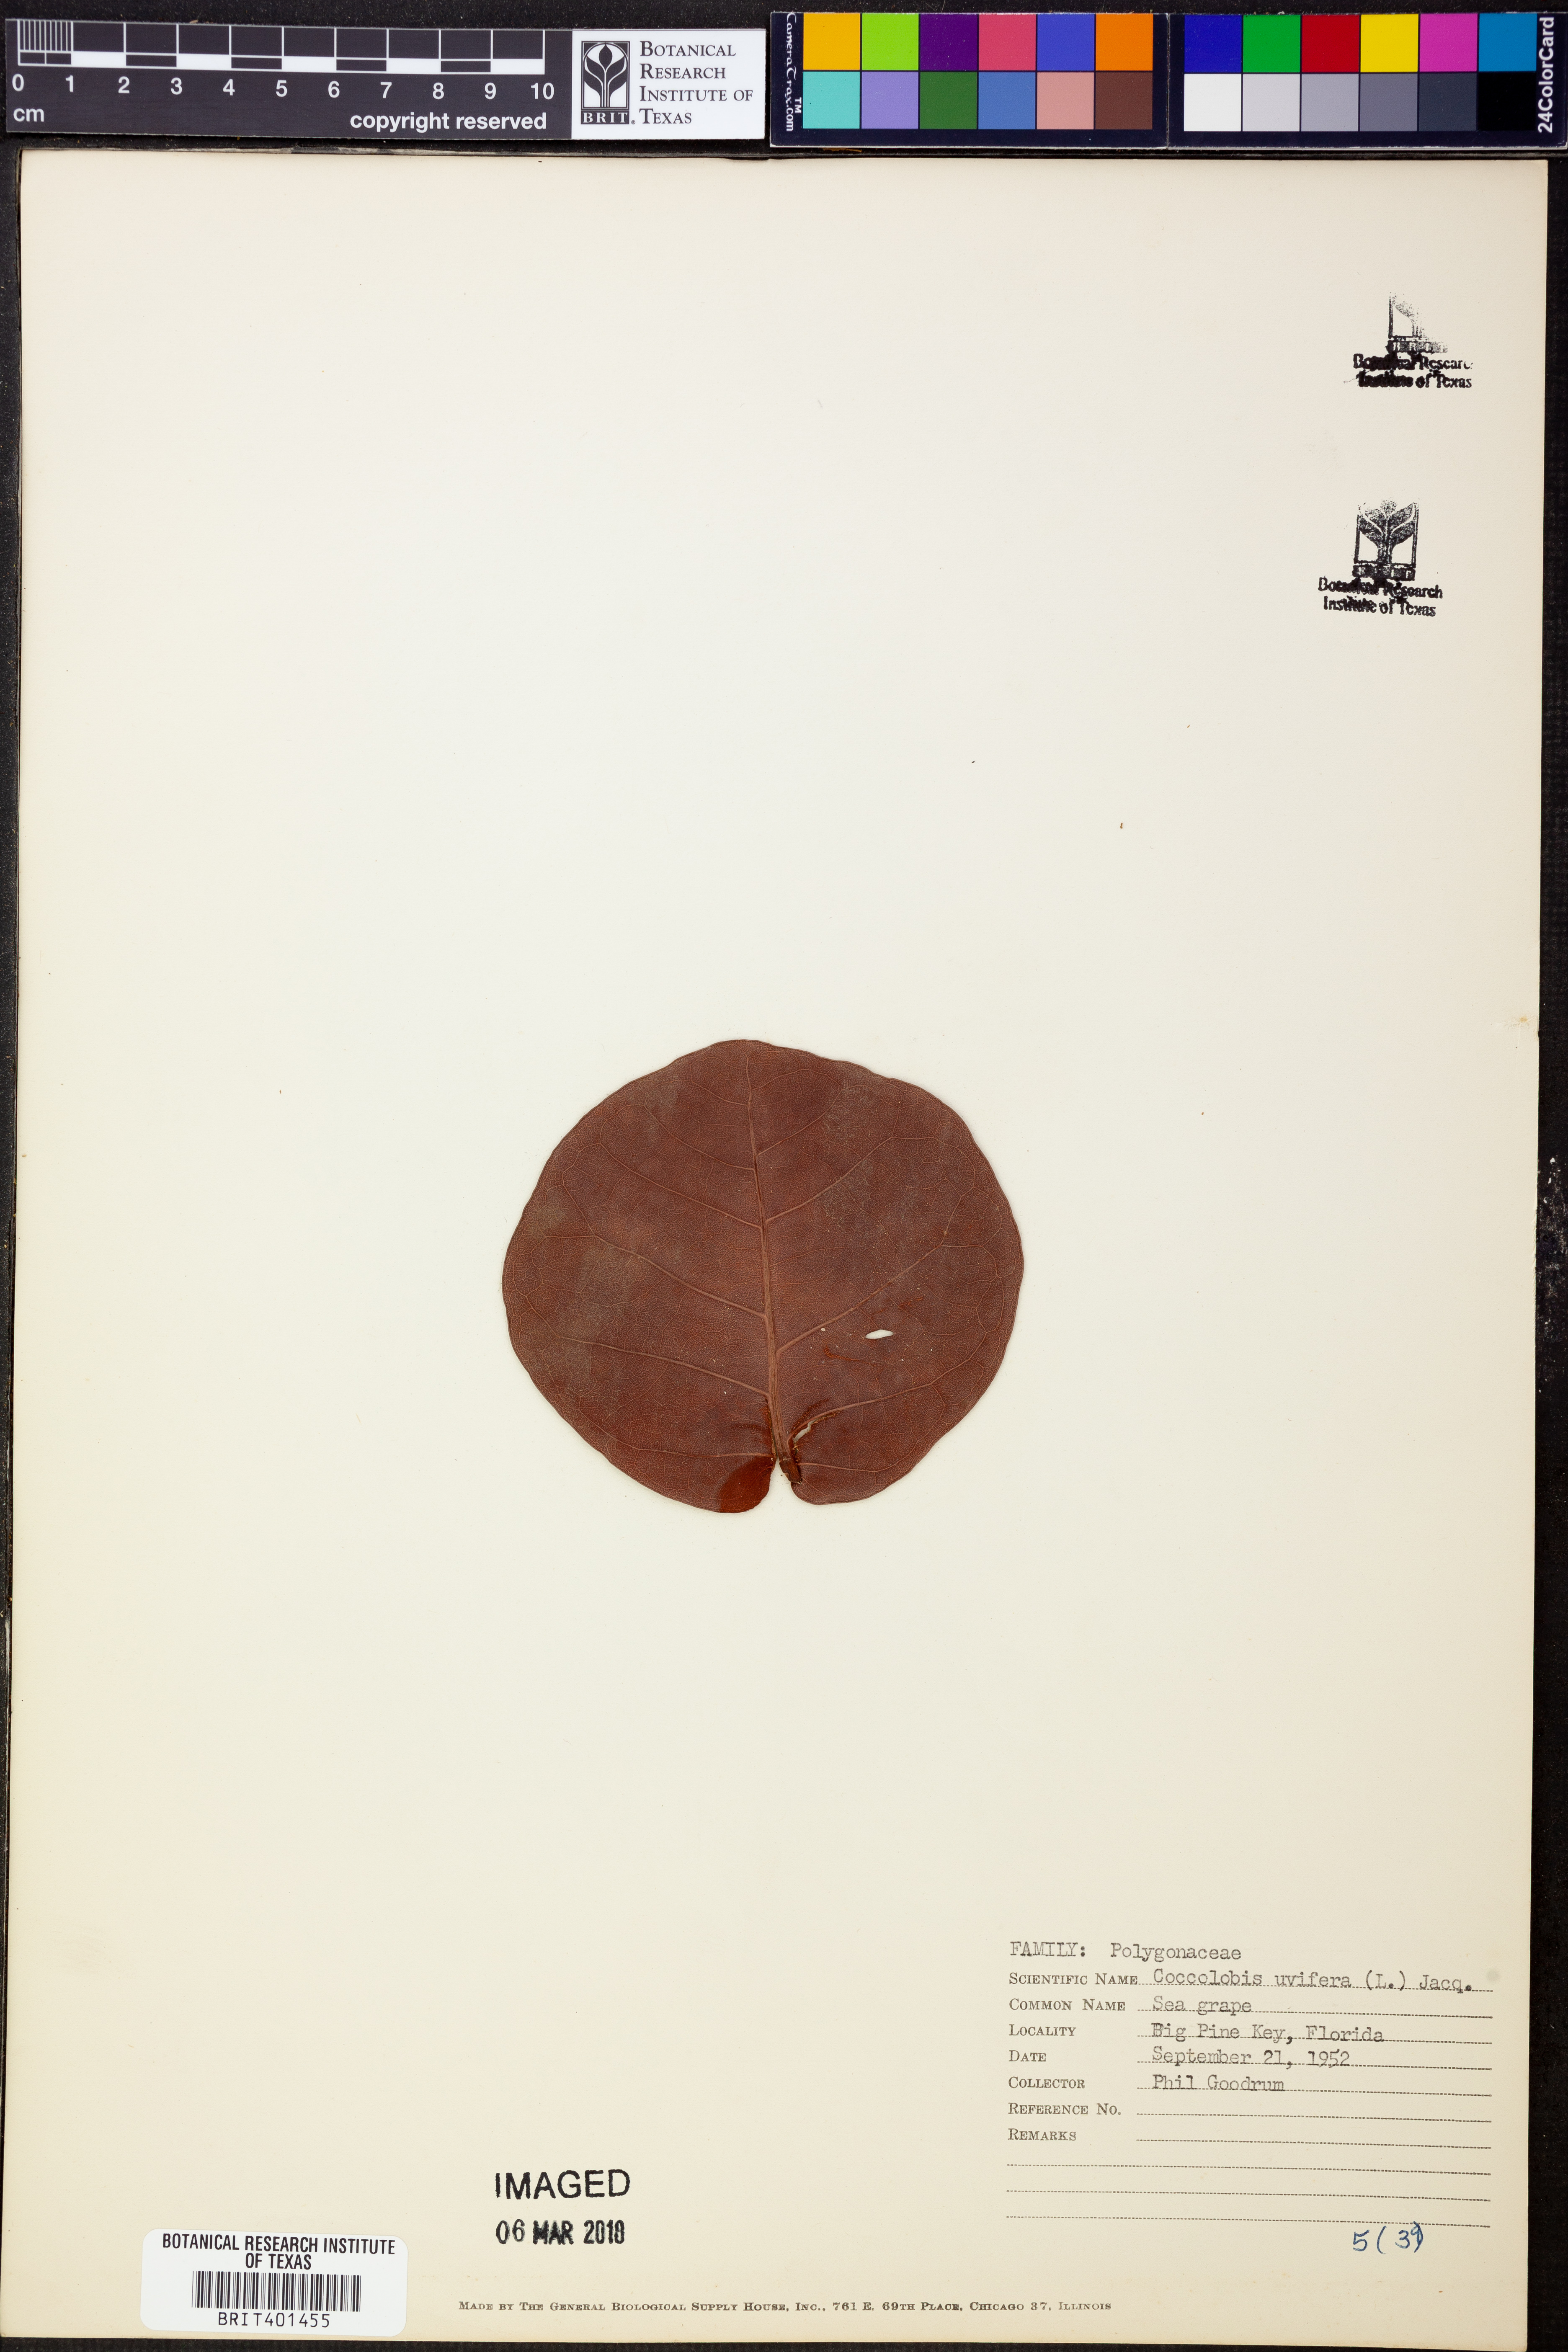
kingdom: Plantae
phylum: Tracheophyta
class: Magnoliopsida
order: Caryophyllales
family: Polygonaceae
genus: Coccoloba
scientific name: Coccoloba uvifera
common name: Seagrape
